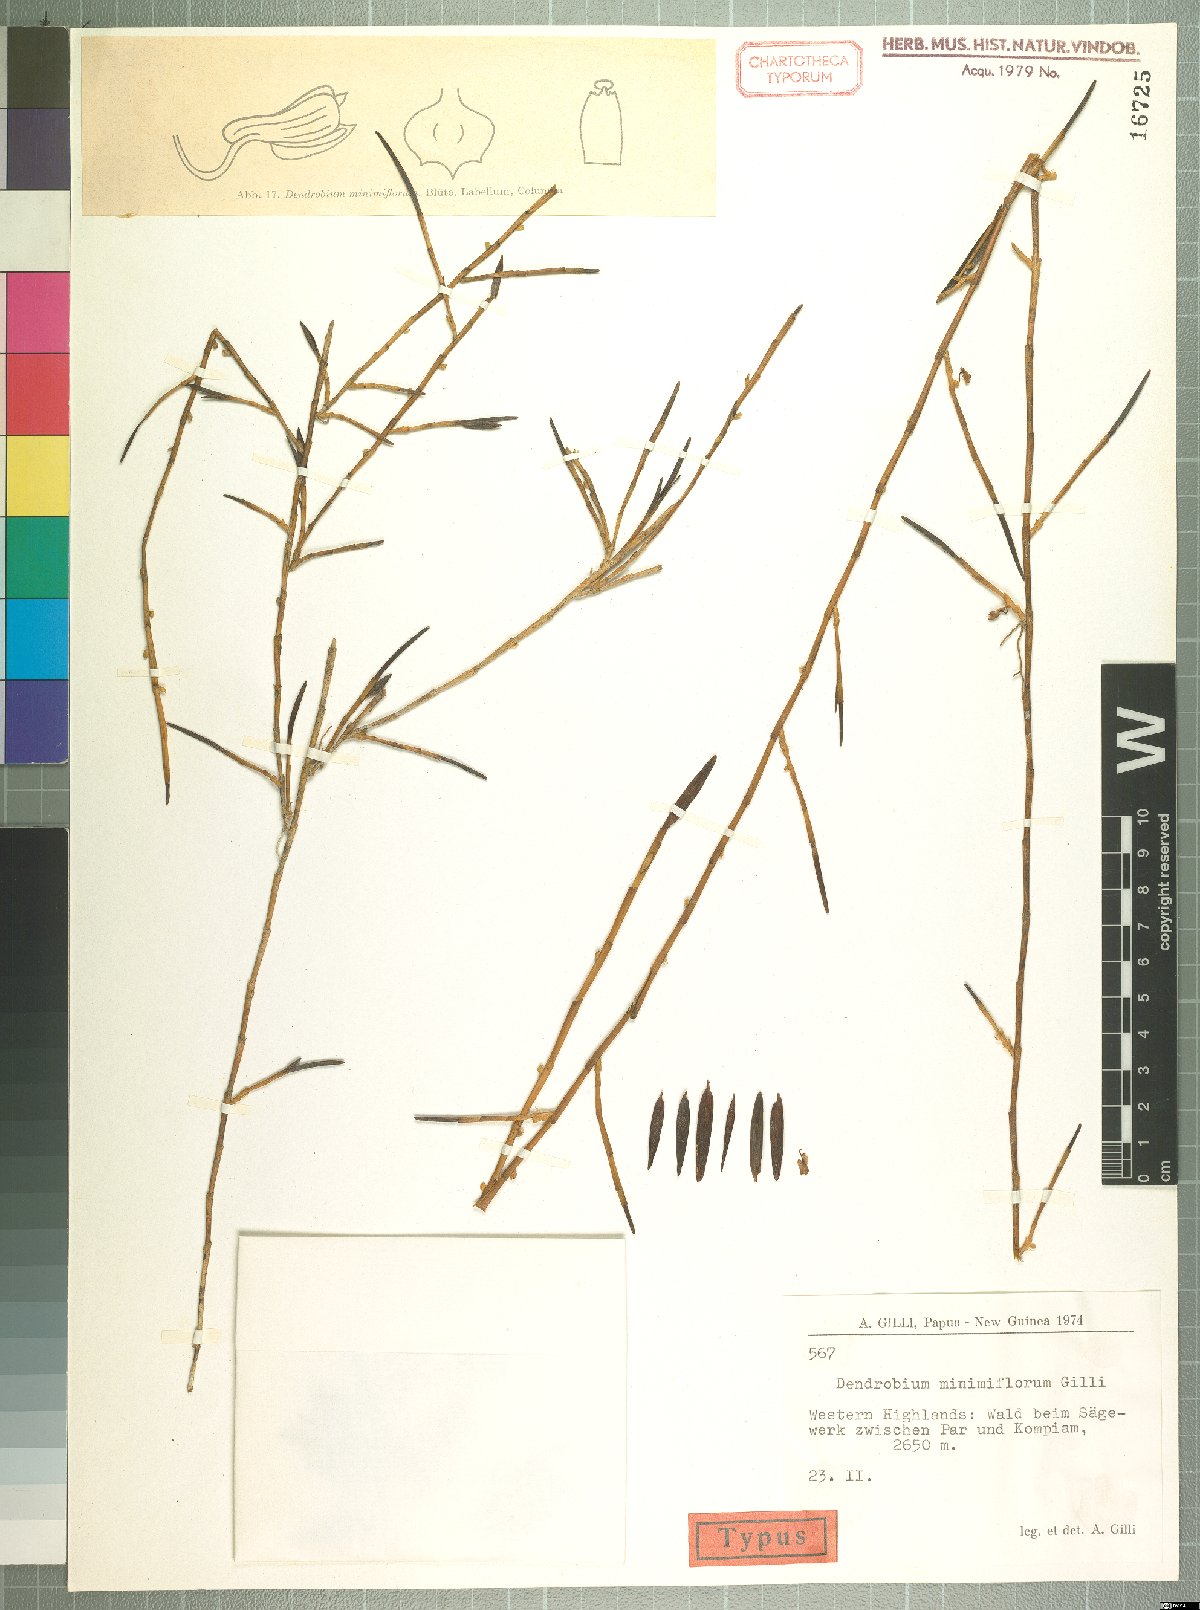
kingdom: Plantae
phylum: Tracheophyta
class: Liliopsida
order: Asparagales
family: Orchidaceae
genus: Dendrobium
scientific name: Dendrobium minimiflorum
